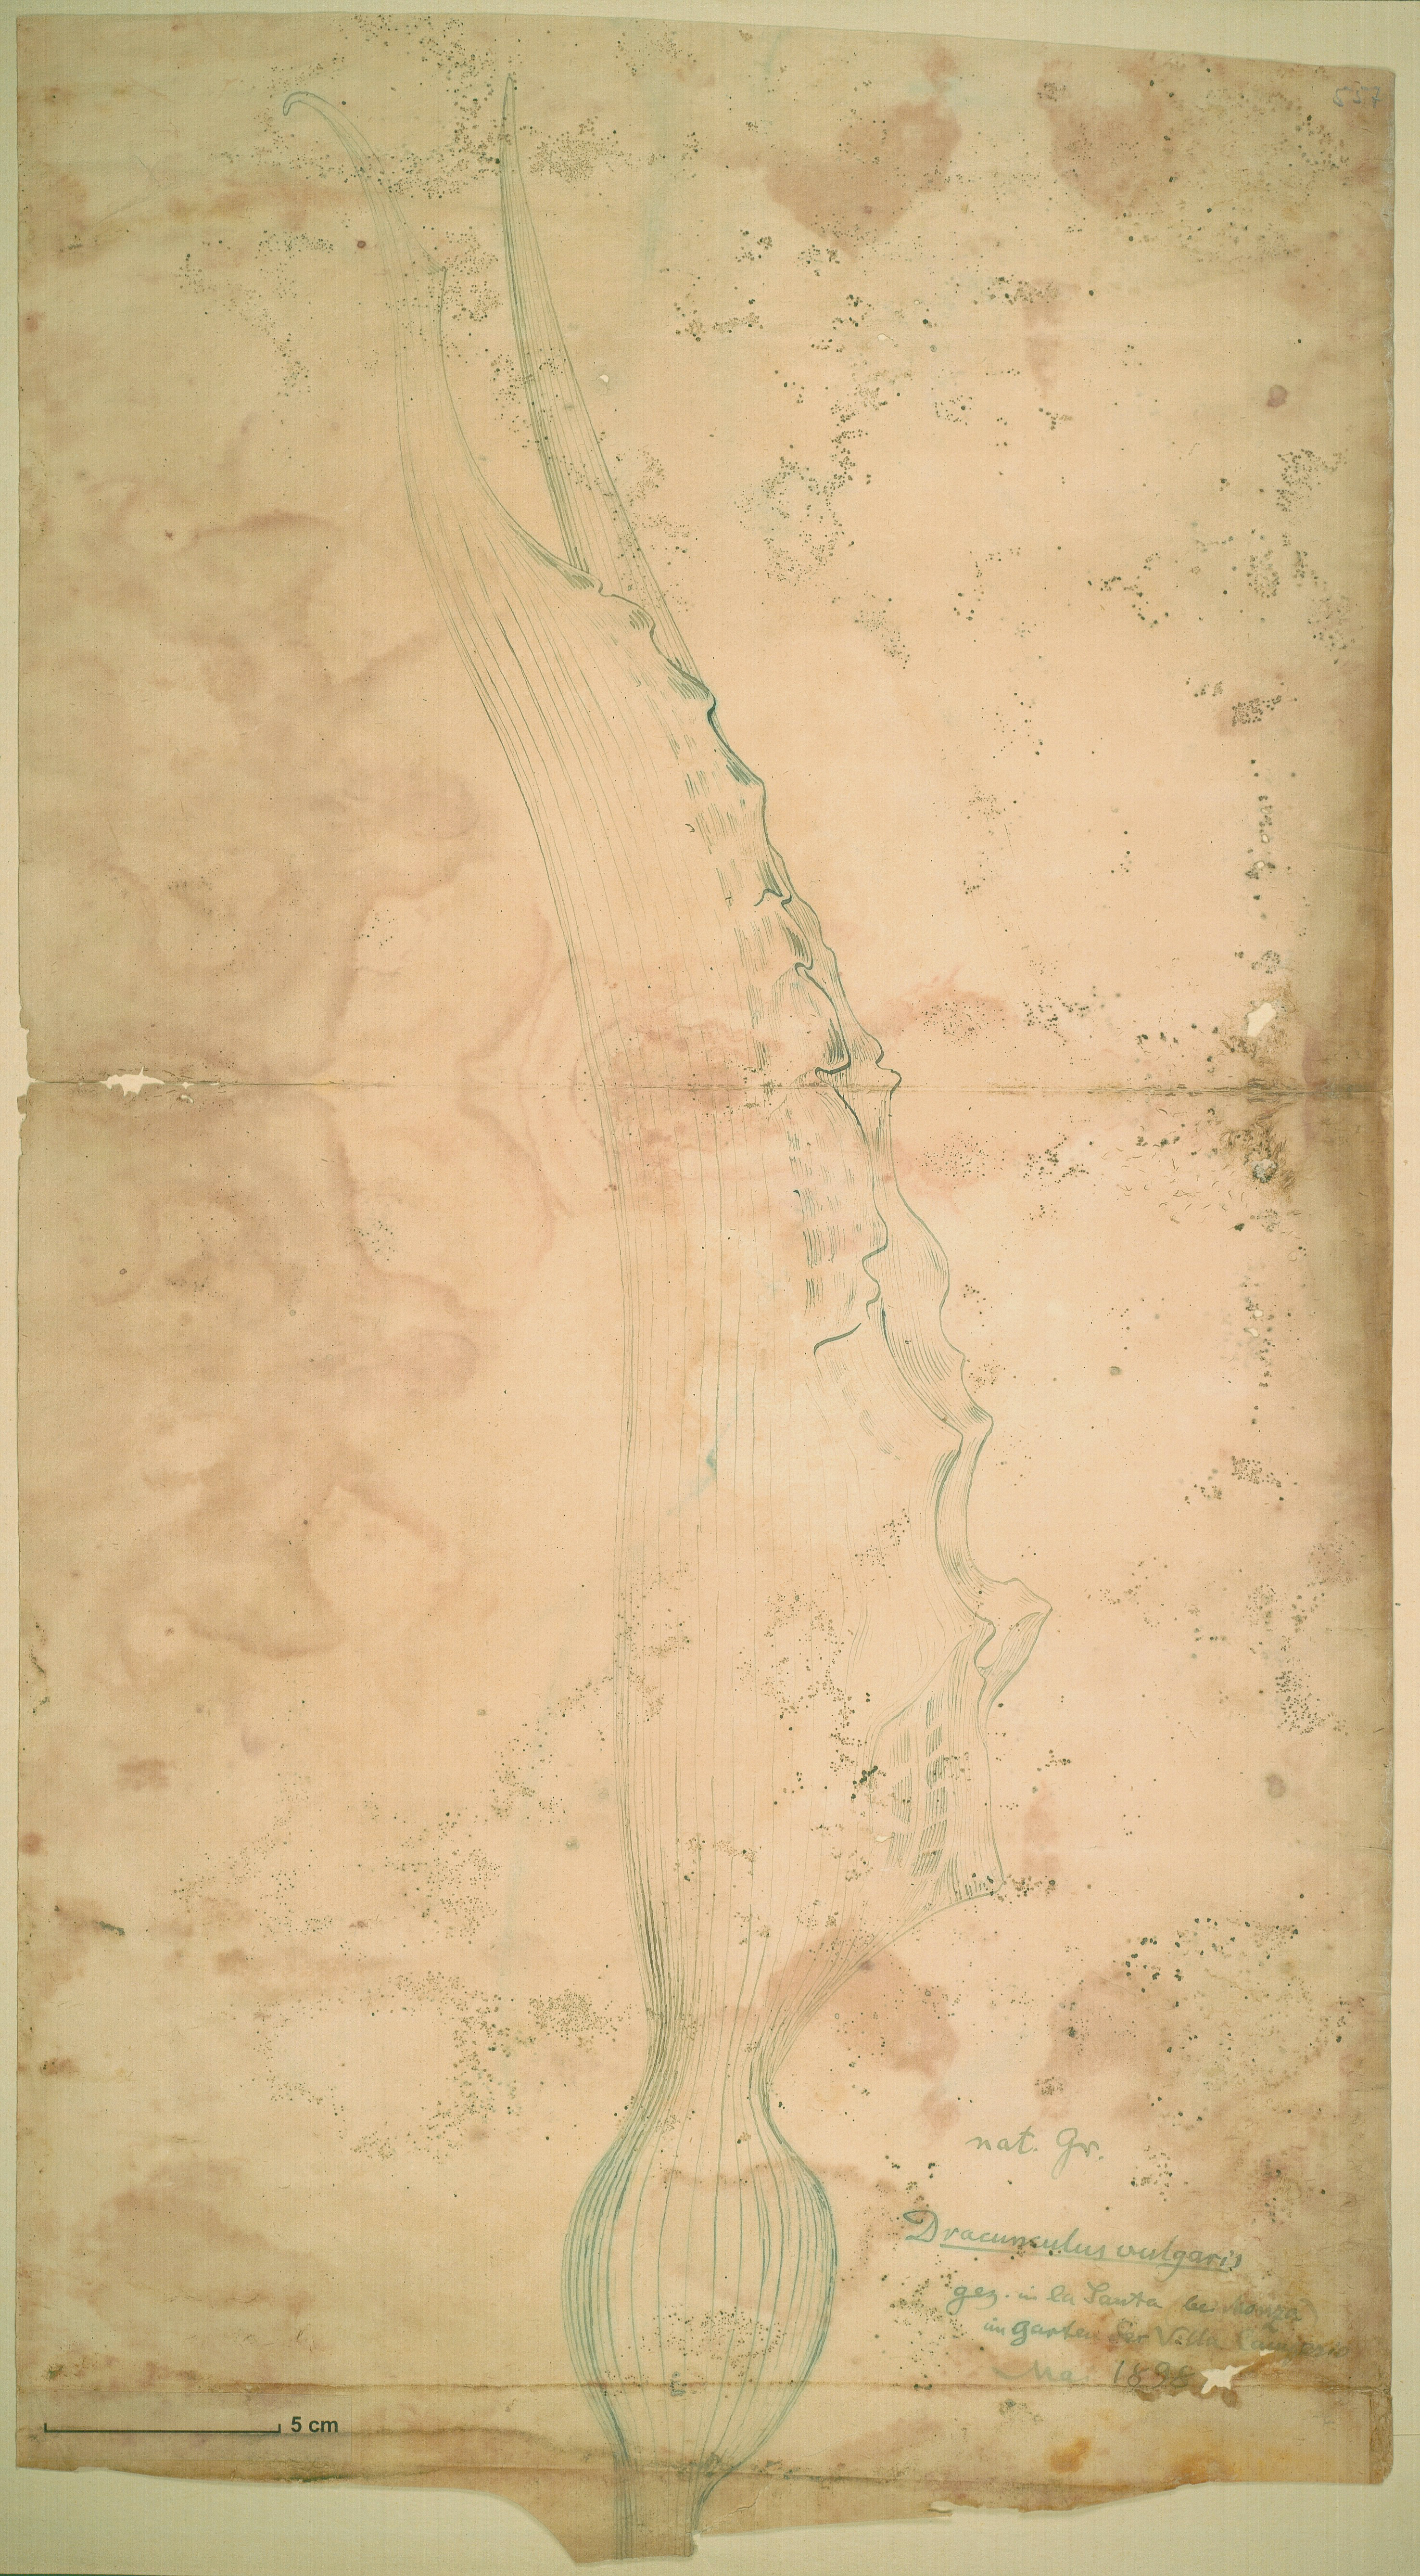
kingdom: Plantae
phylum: Tracheophyta
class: Liliopsida
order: Alismatales
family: Araceae
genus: Dracunculus
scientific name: Dracunculus vulgaris
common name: Dragon arum
